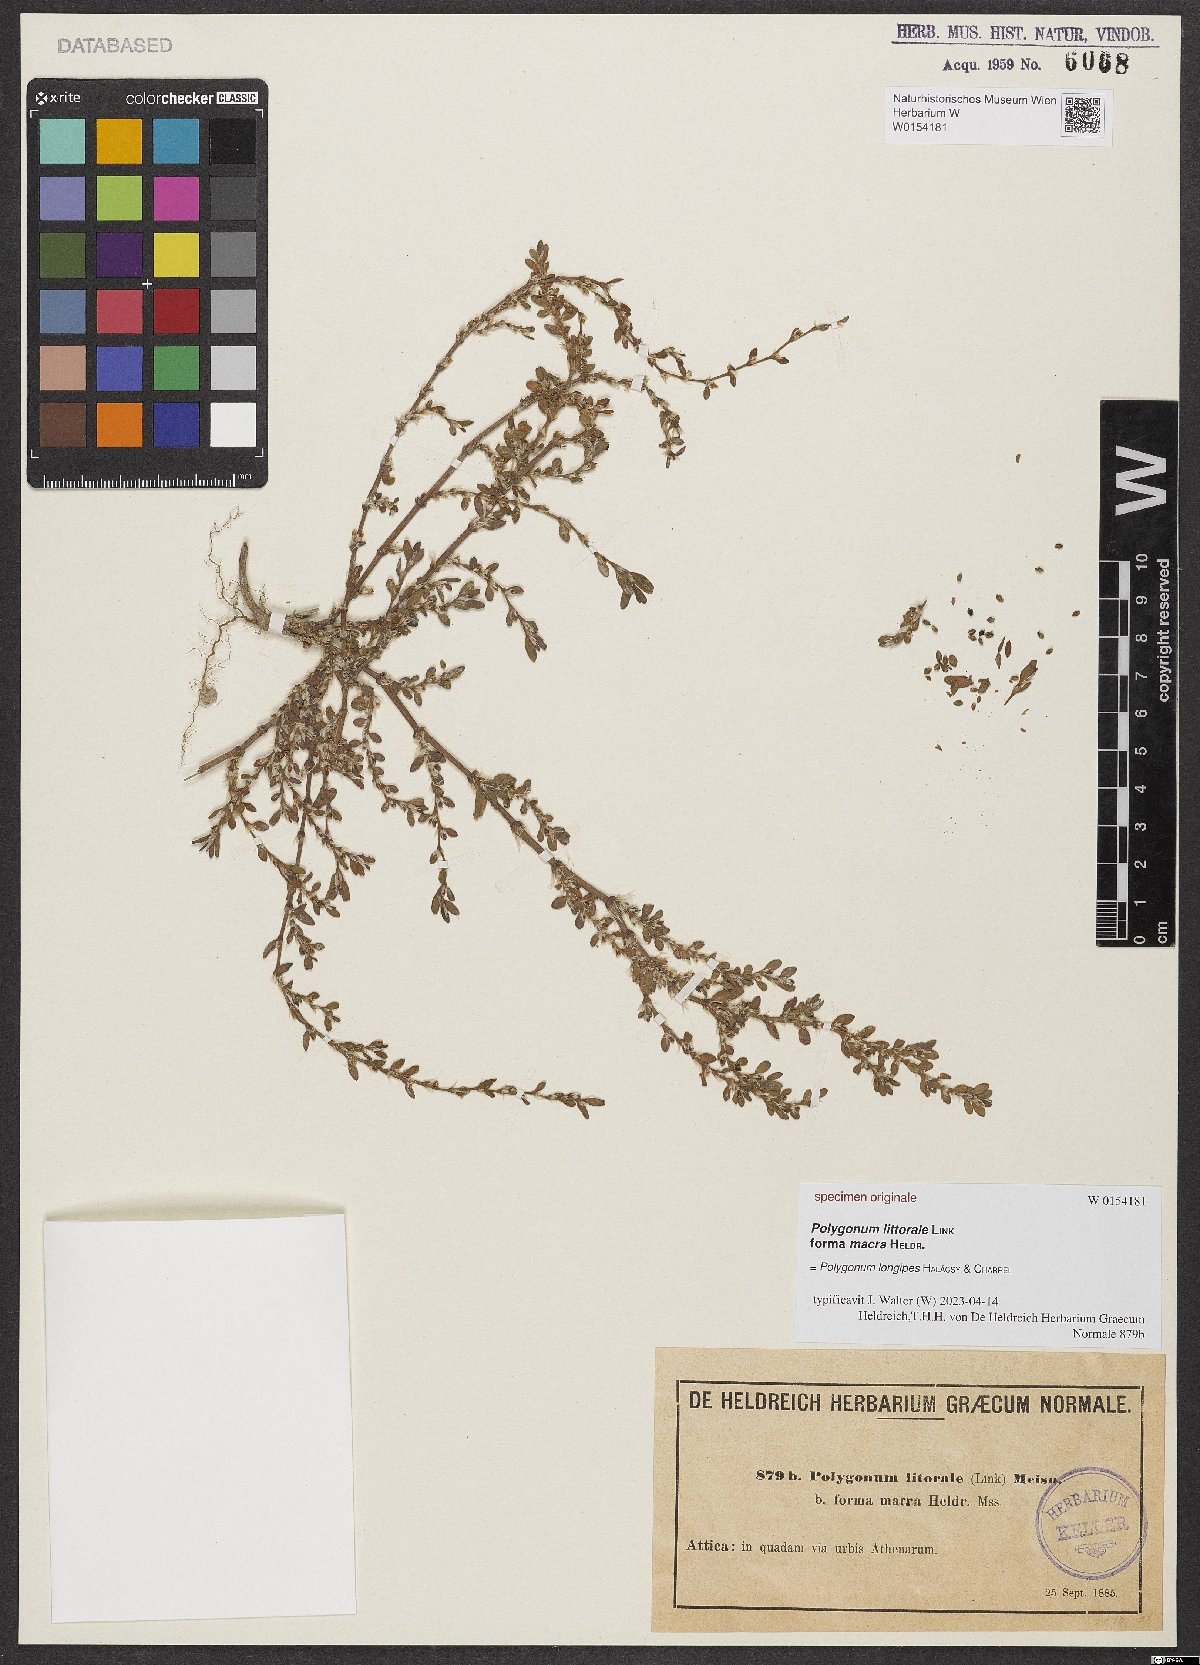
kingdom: Plantae
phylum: Tracheophyta
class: Magnoliopsida
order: Caryophyllales
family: Polygonaceae
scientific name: Polygonaceae
